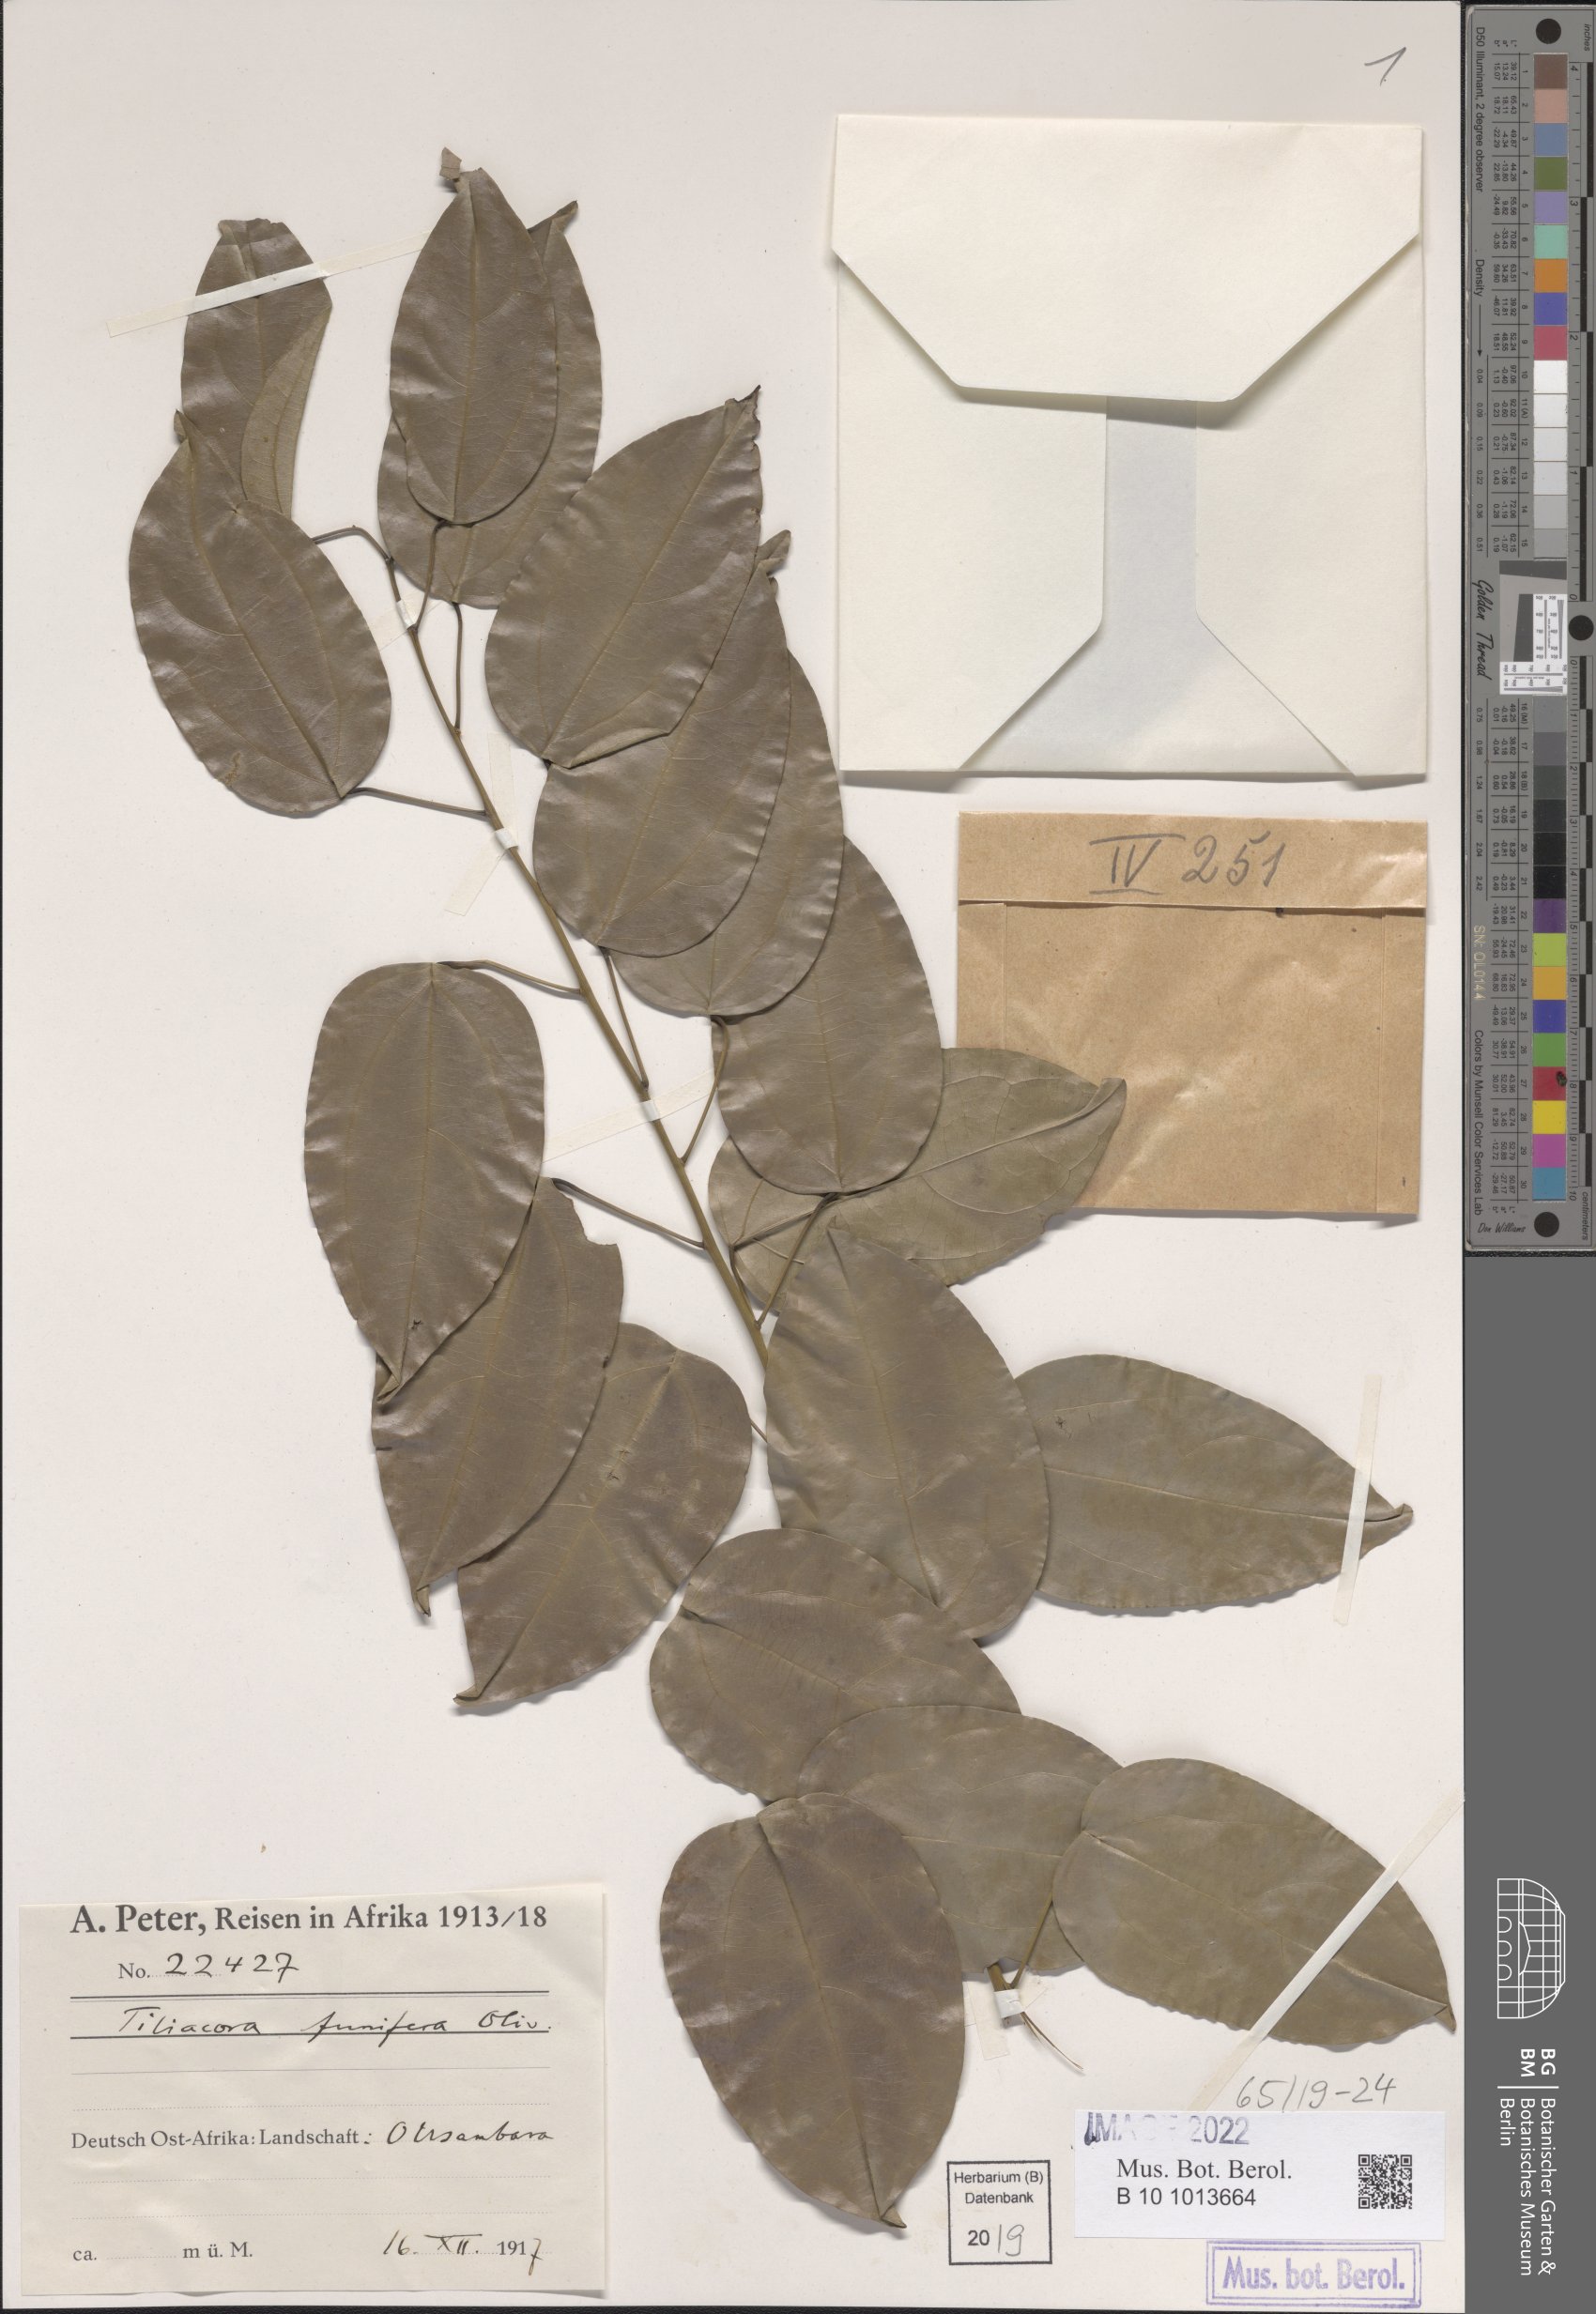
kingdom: Plantae
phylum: Tracheophyta
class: Magnoliopsida
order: Ranunculales
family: Menispermaceae
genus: Tiliacora
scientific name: Tiliacora funifera
